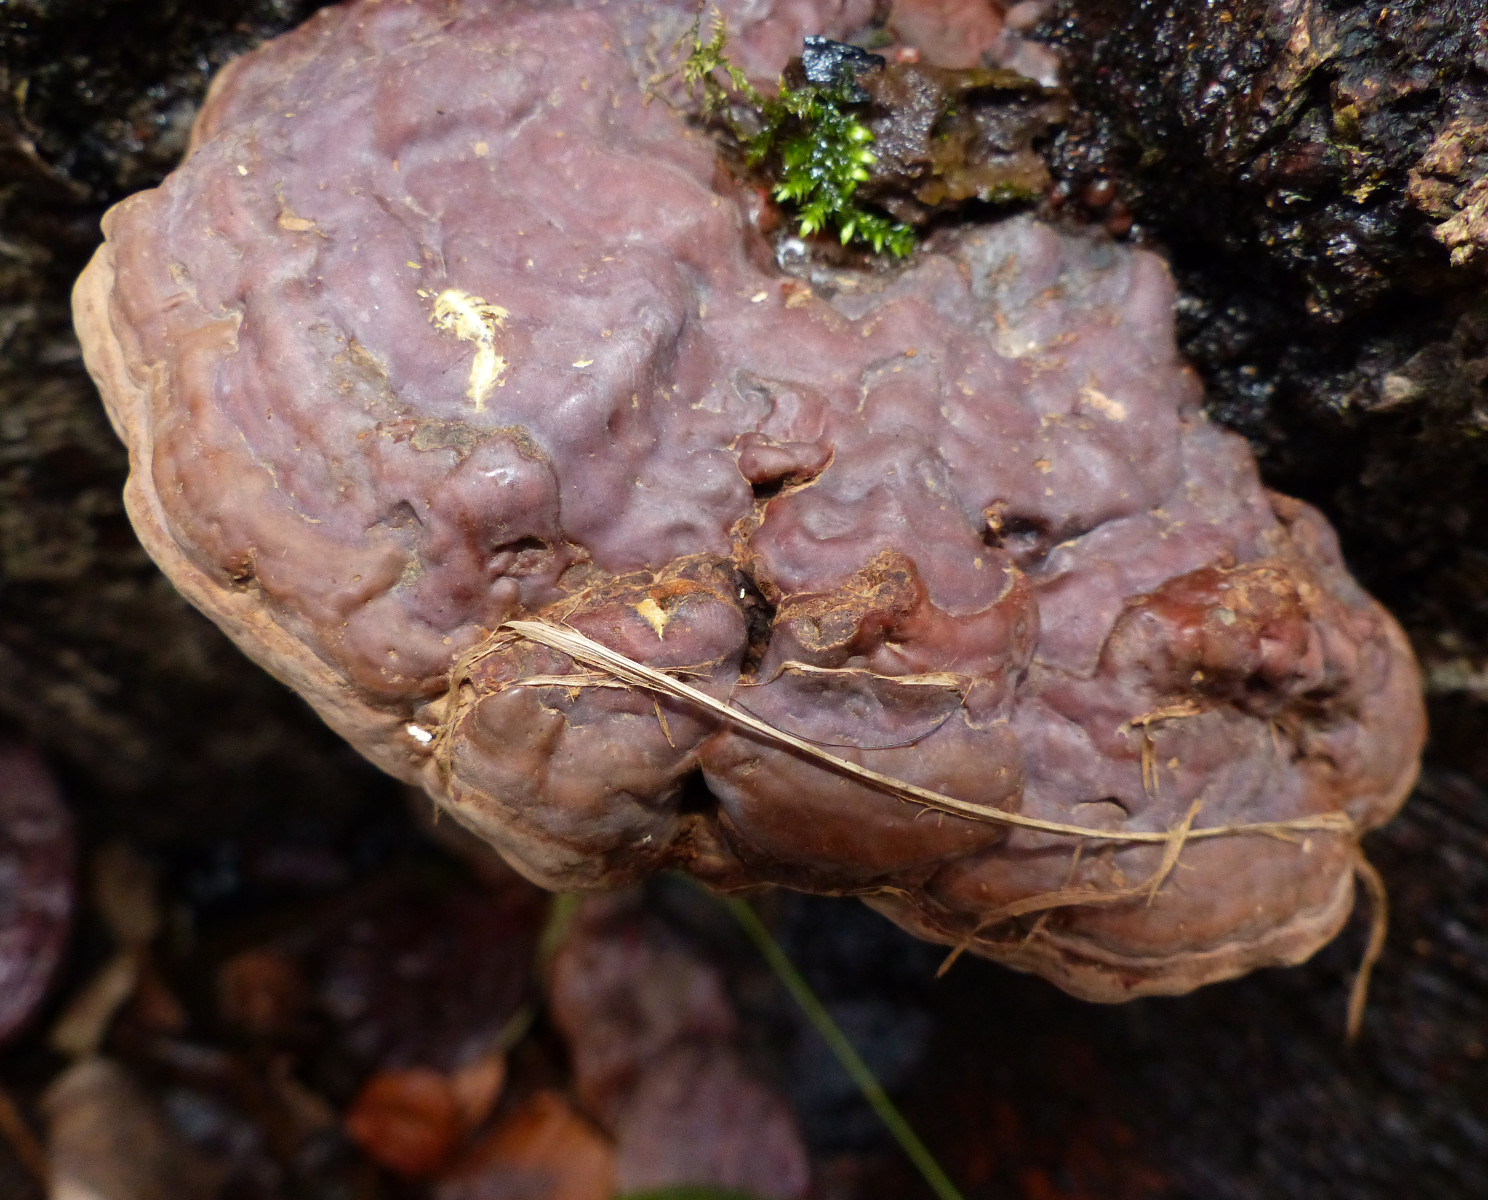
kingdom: Fungi
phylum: Basidiomycota
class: Agaricomycetes
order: Polyporales
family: Polyporaceae
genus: Ganoderma
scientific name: Ganoderma pfeifferi
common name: kobberrød lakporesvamp
